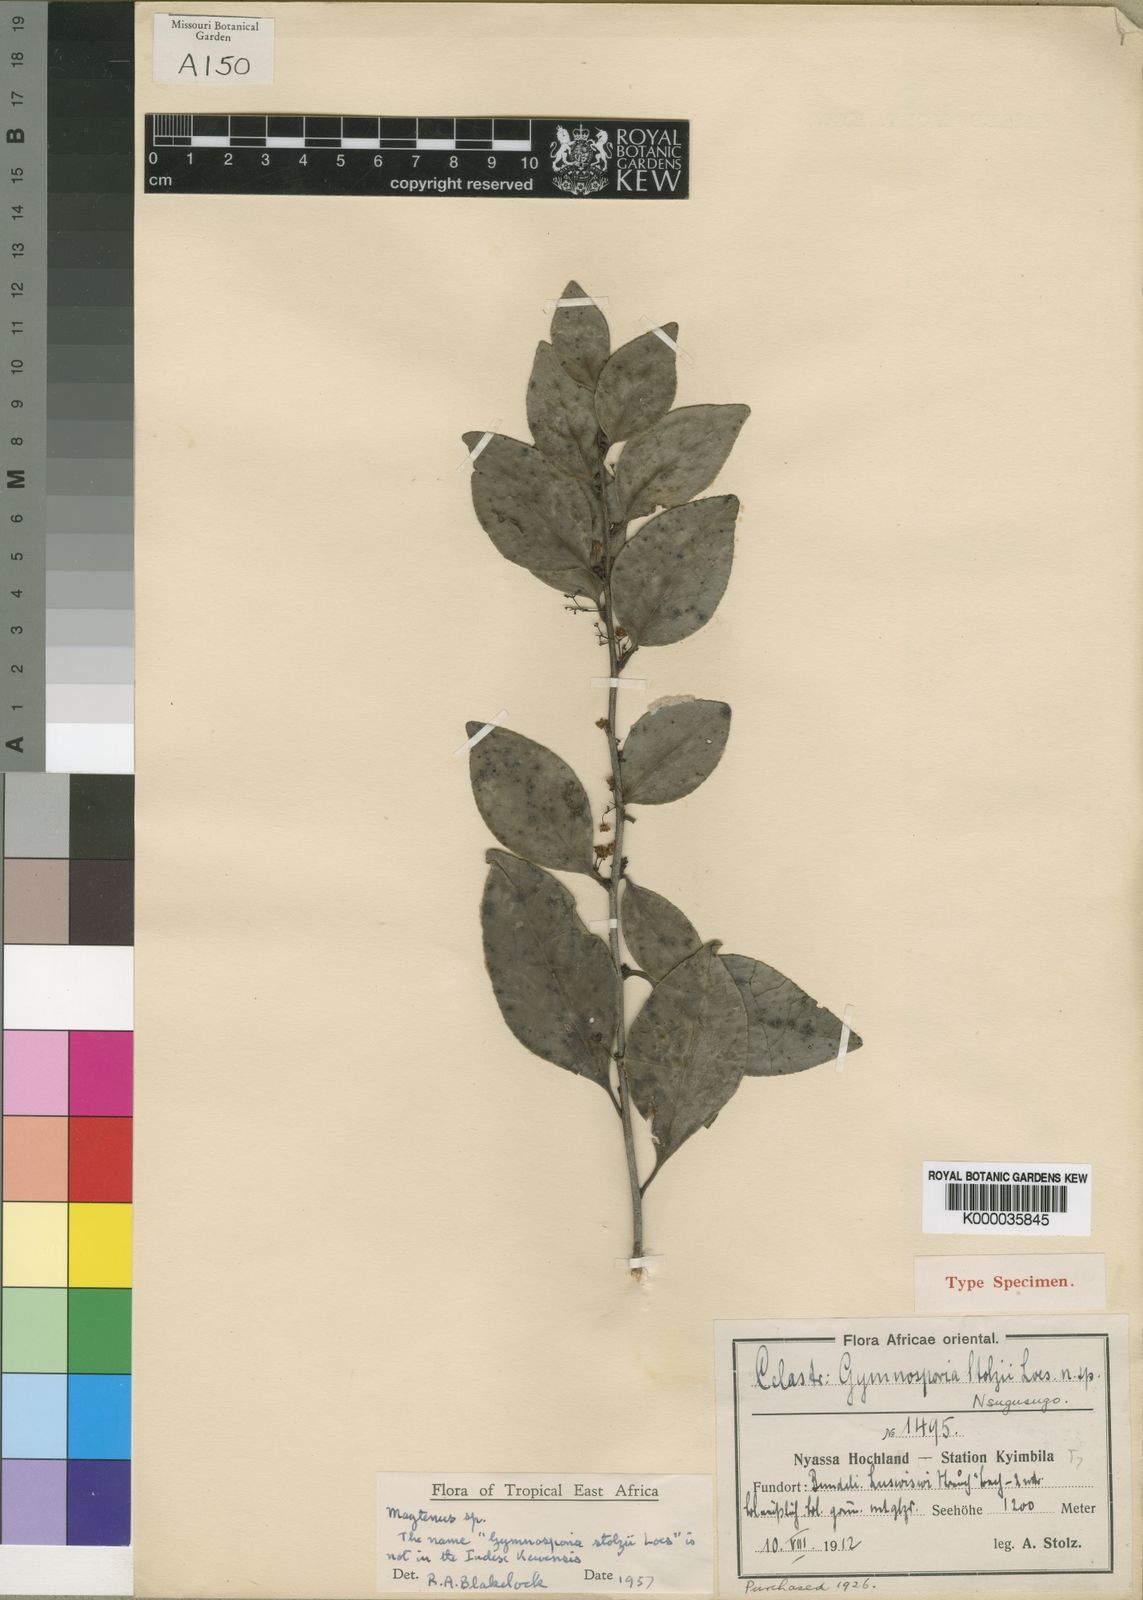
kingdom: Plantae
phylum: Tracheophyta
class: Magnoliopsida
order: Celastrales
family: Celastraceae
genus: Gymnosporia
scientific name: Gymnosporia harveyana
